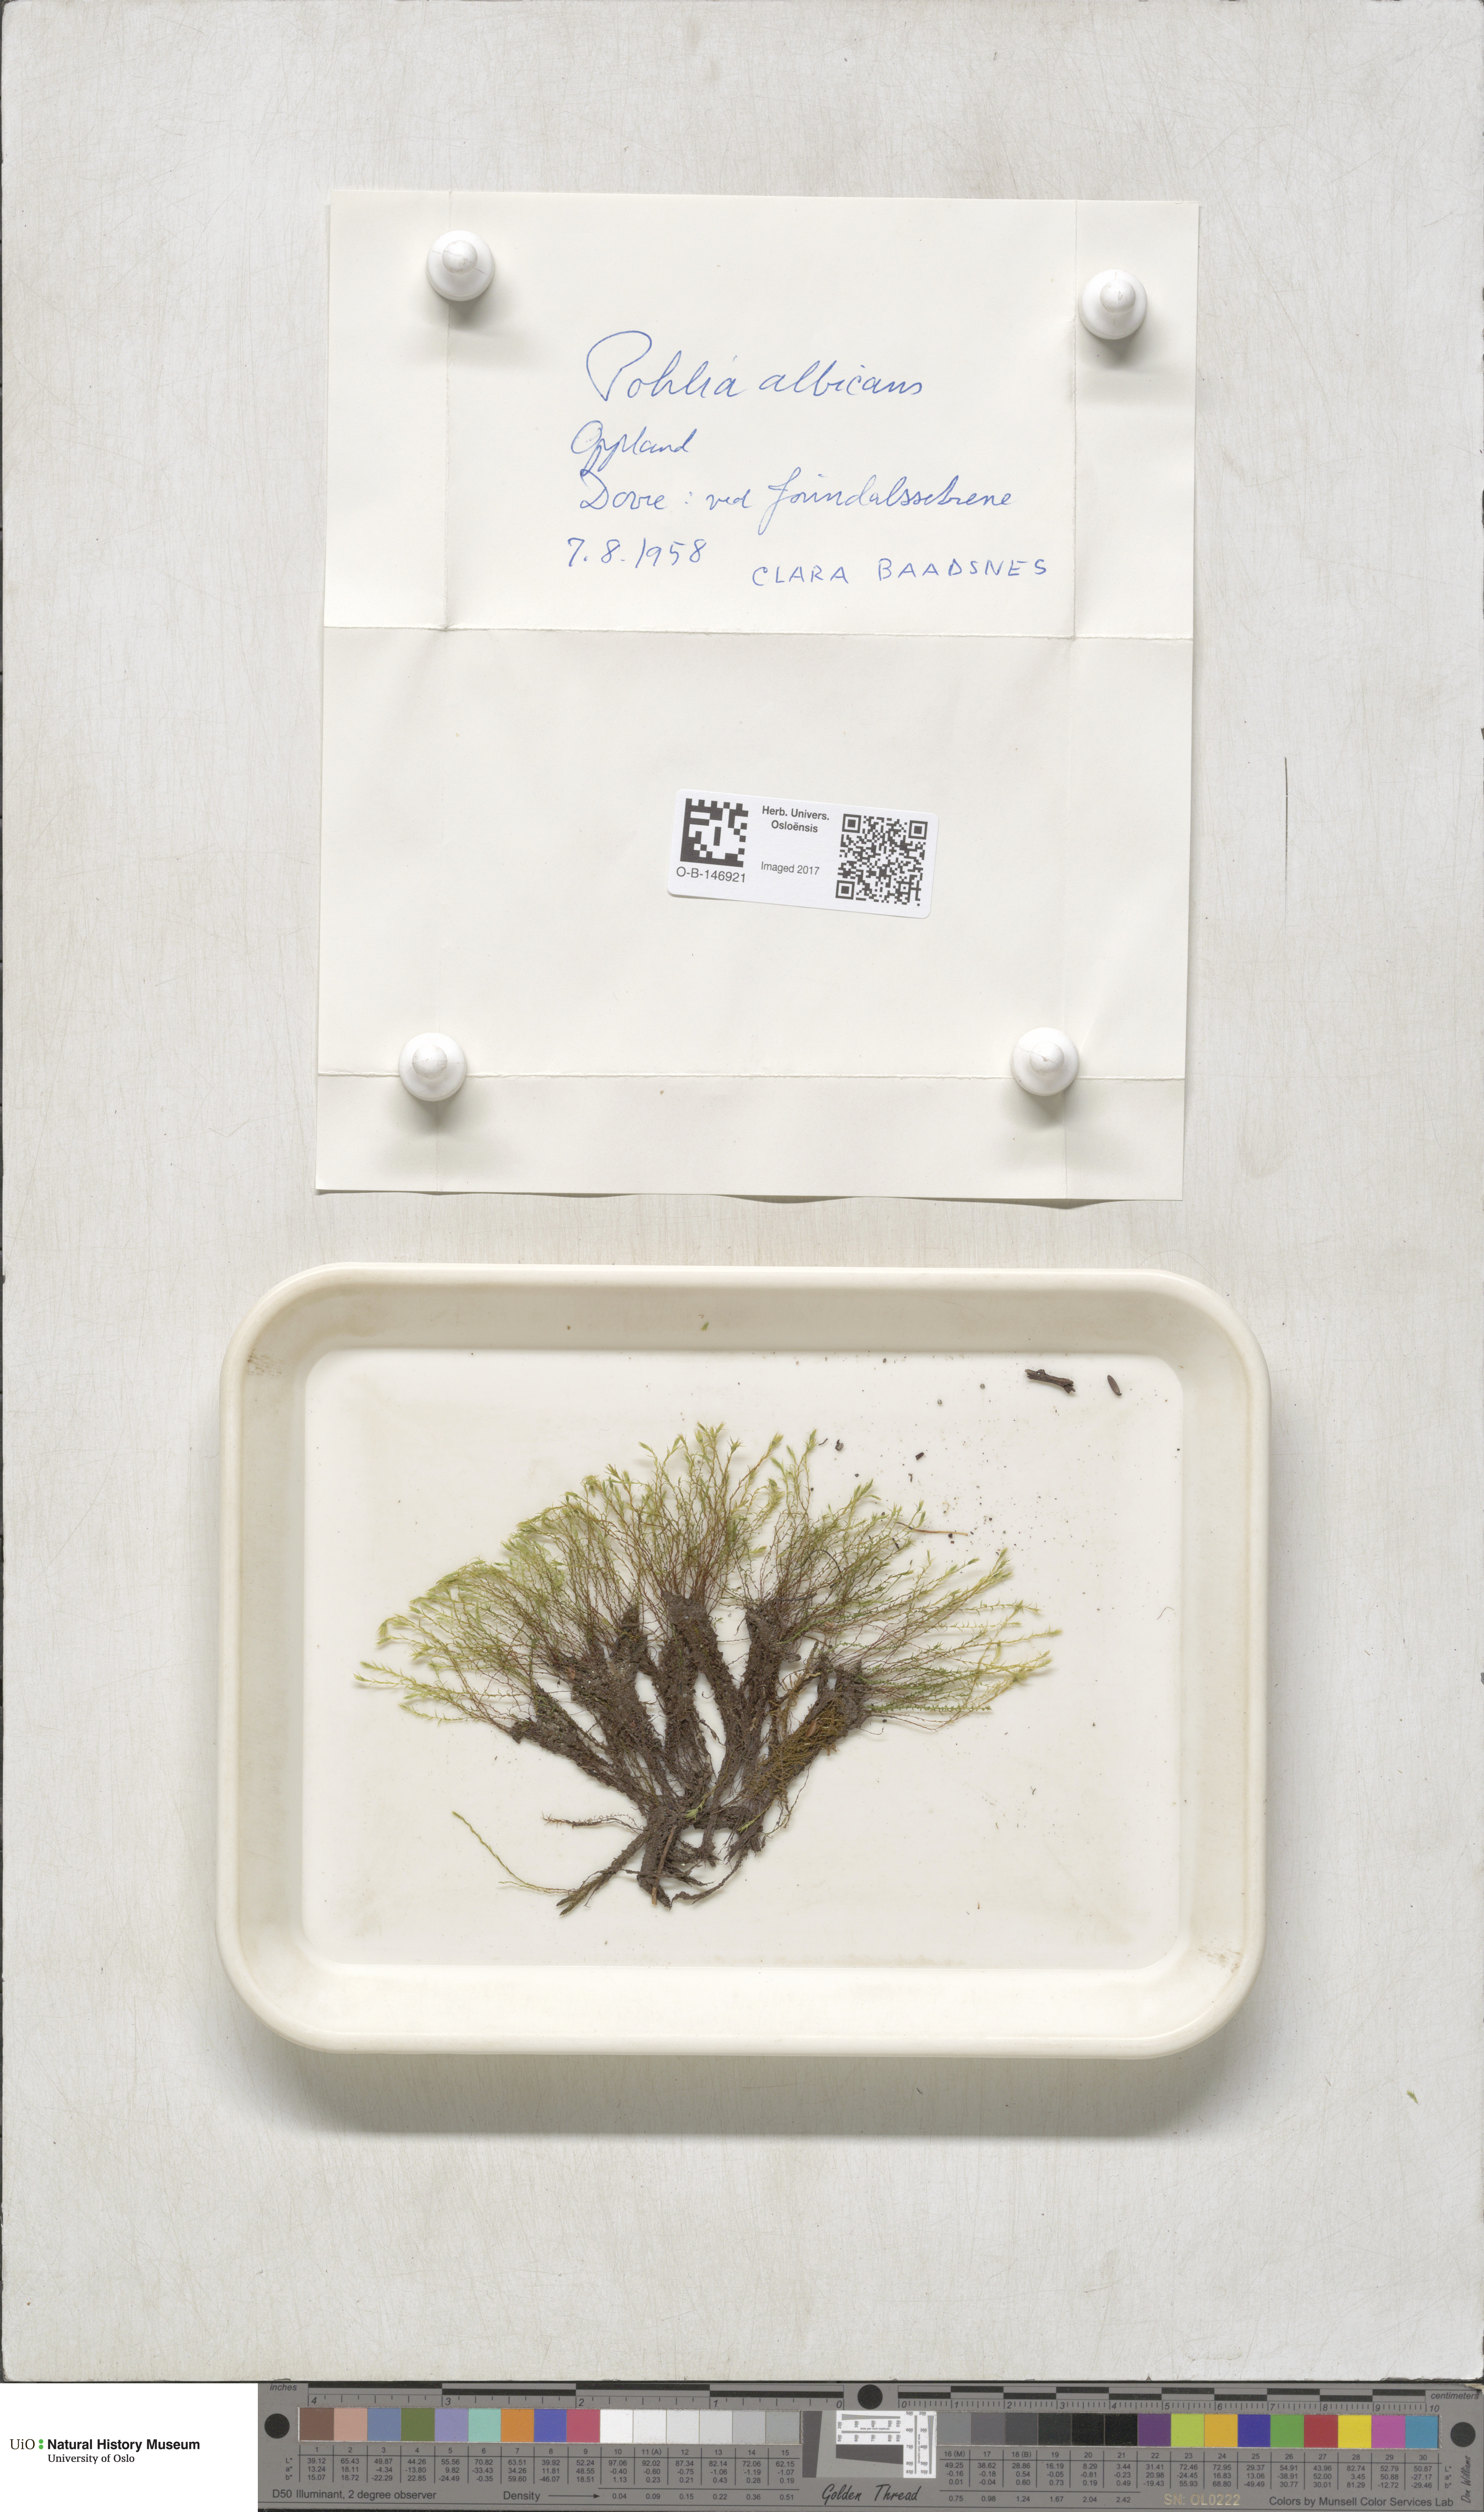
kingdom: Plantae
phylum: Bryophyta
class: Bryopsida
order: Bryales
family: Mniaceae
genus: Pohlia
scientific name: Pohlia wahlenbergii
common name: Wahlenberg's nodding moss
